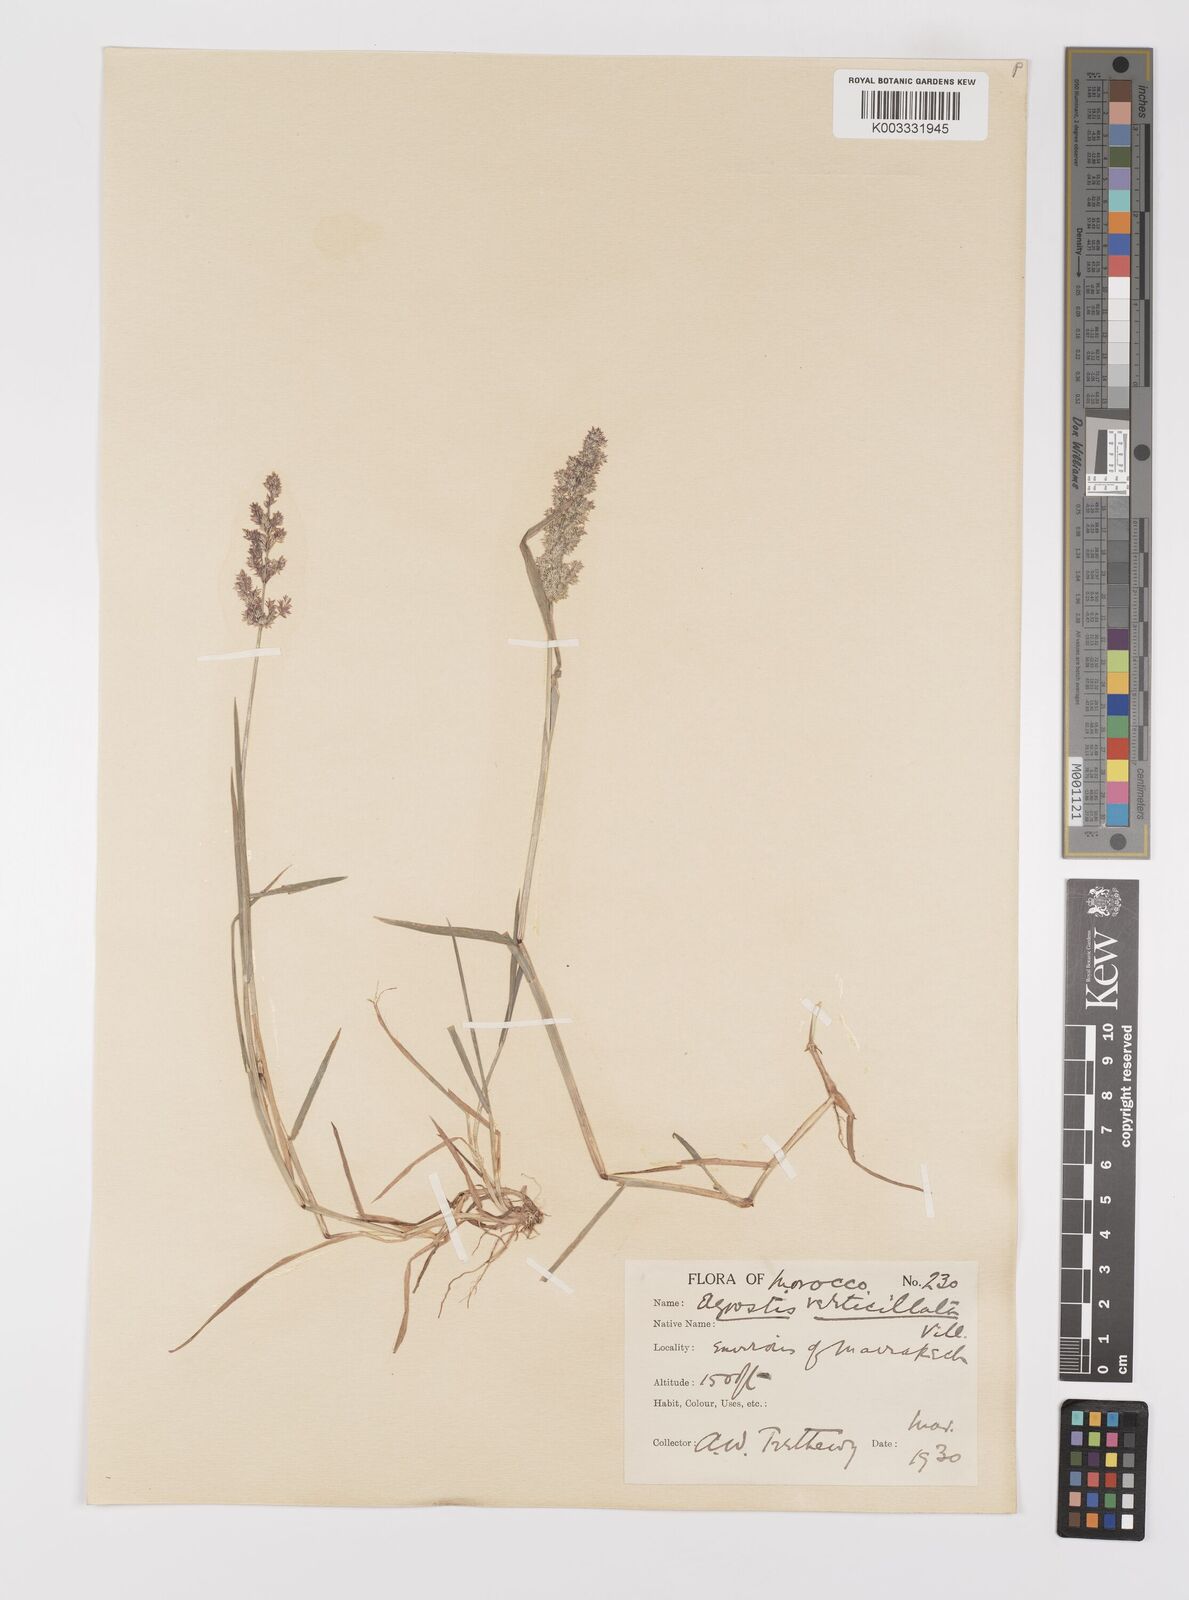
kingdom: Plantae
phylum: Tracheophyta
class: Liliopsida
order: Poales
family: Poaceae
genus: Polypogon
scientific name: Polypogon viridis
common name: Water bent
